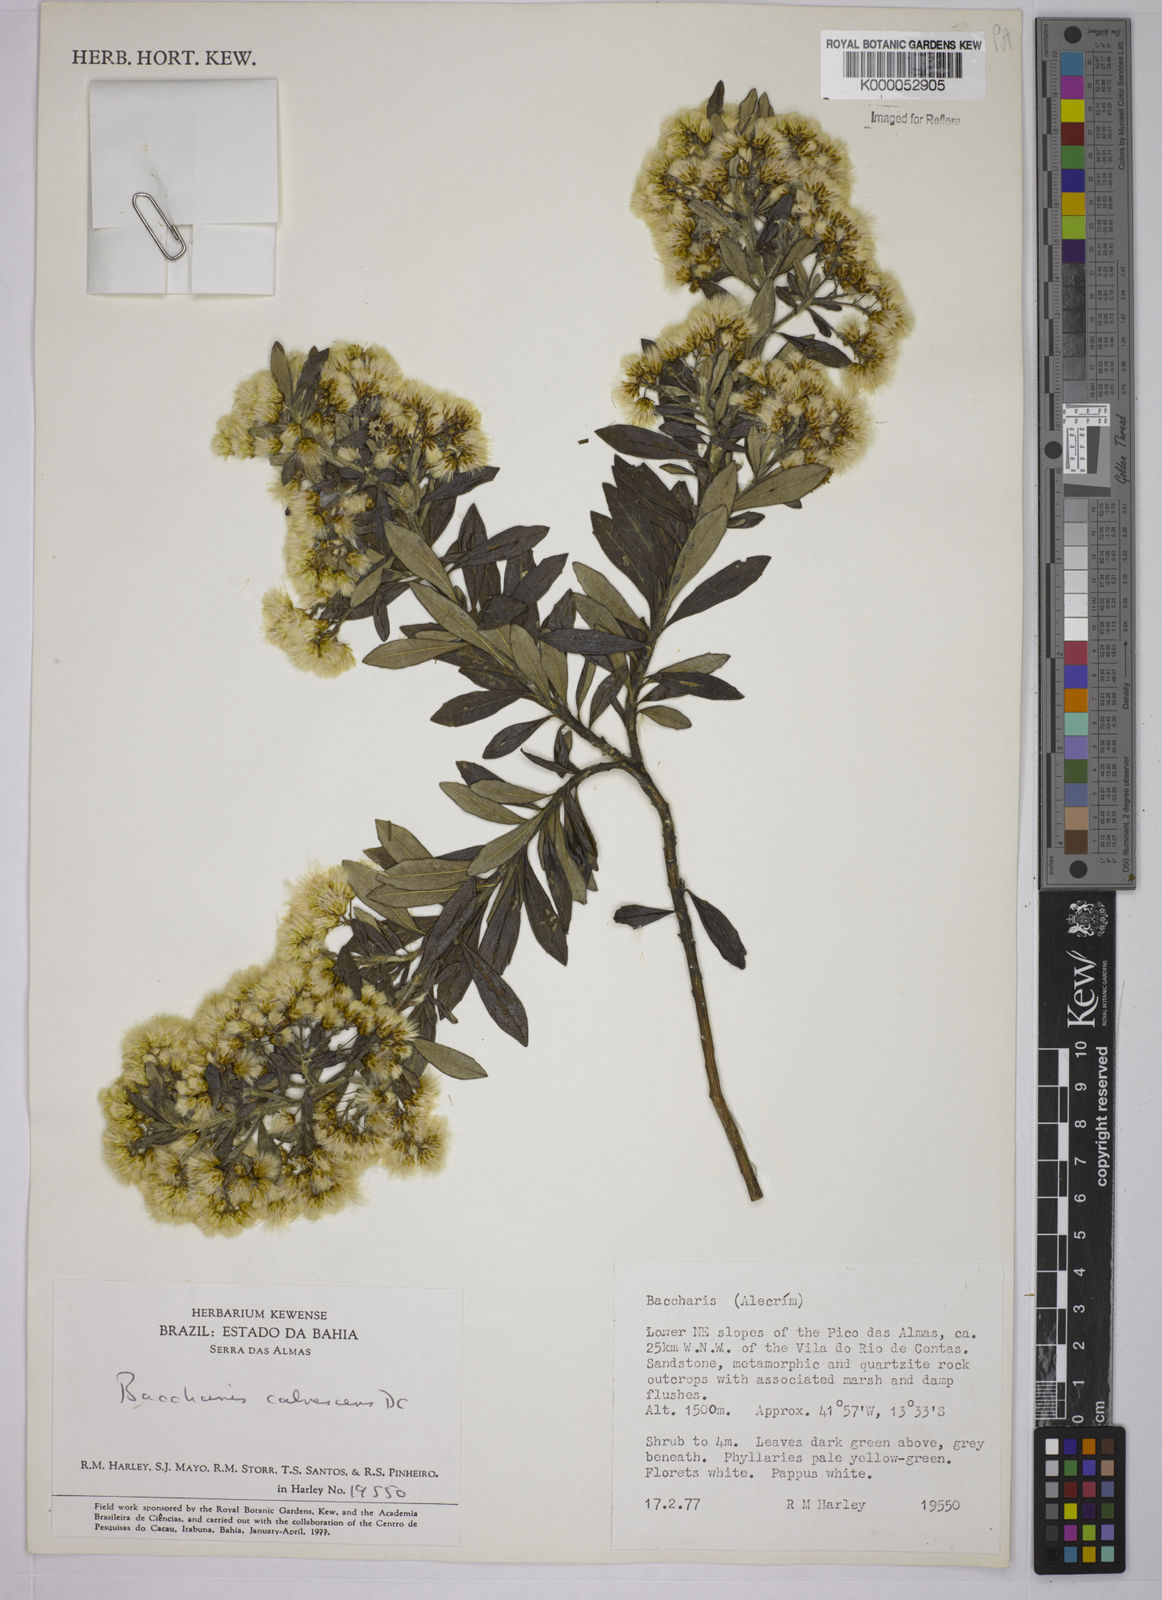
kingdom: Plantae
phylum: Tracheophyta
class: Magnoliopsida
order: Asterales
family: Asteraceae
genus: Baccharis
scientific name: Baccharis calvescens
